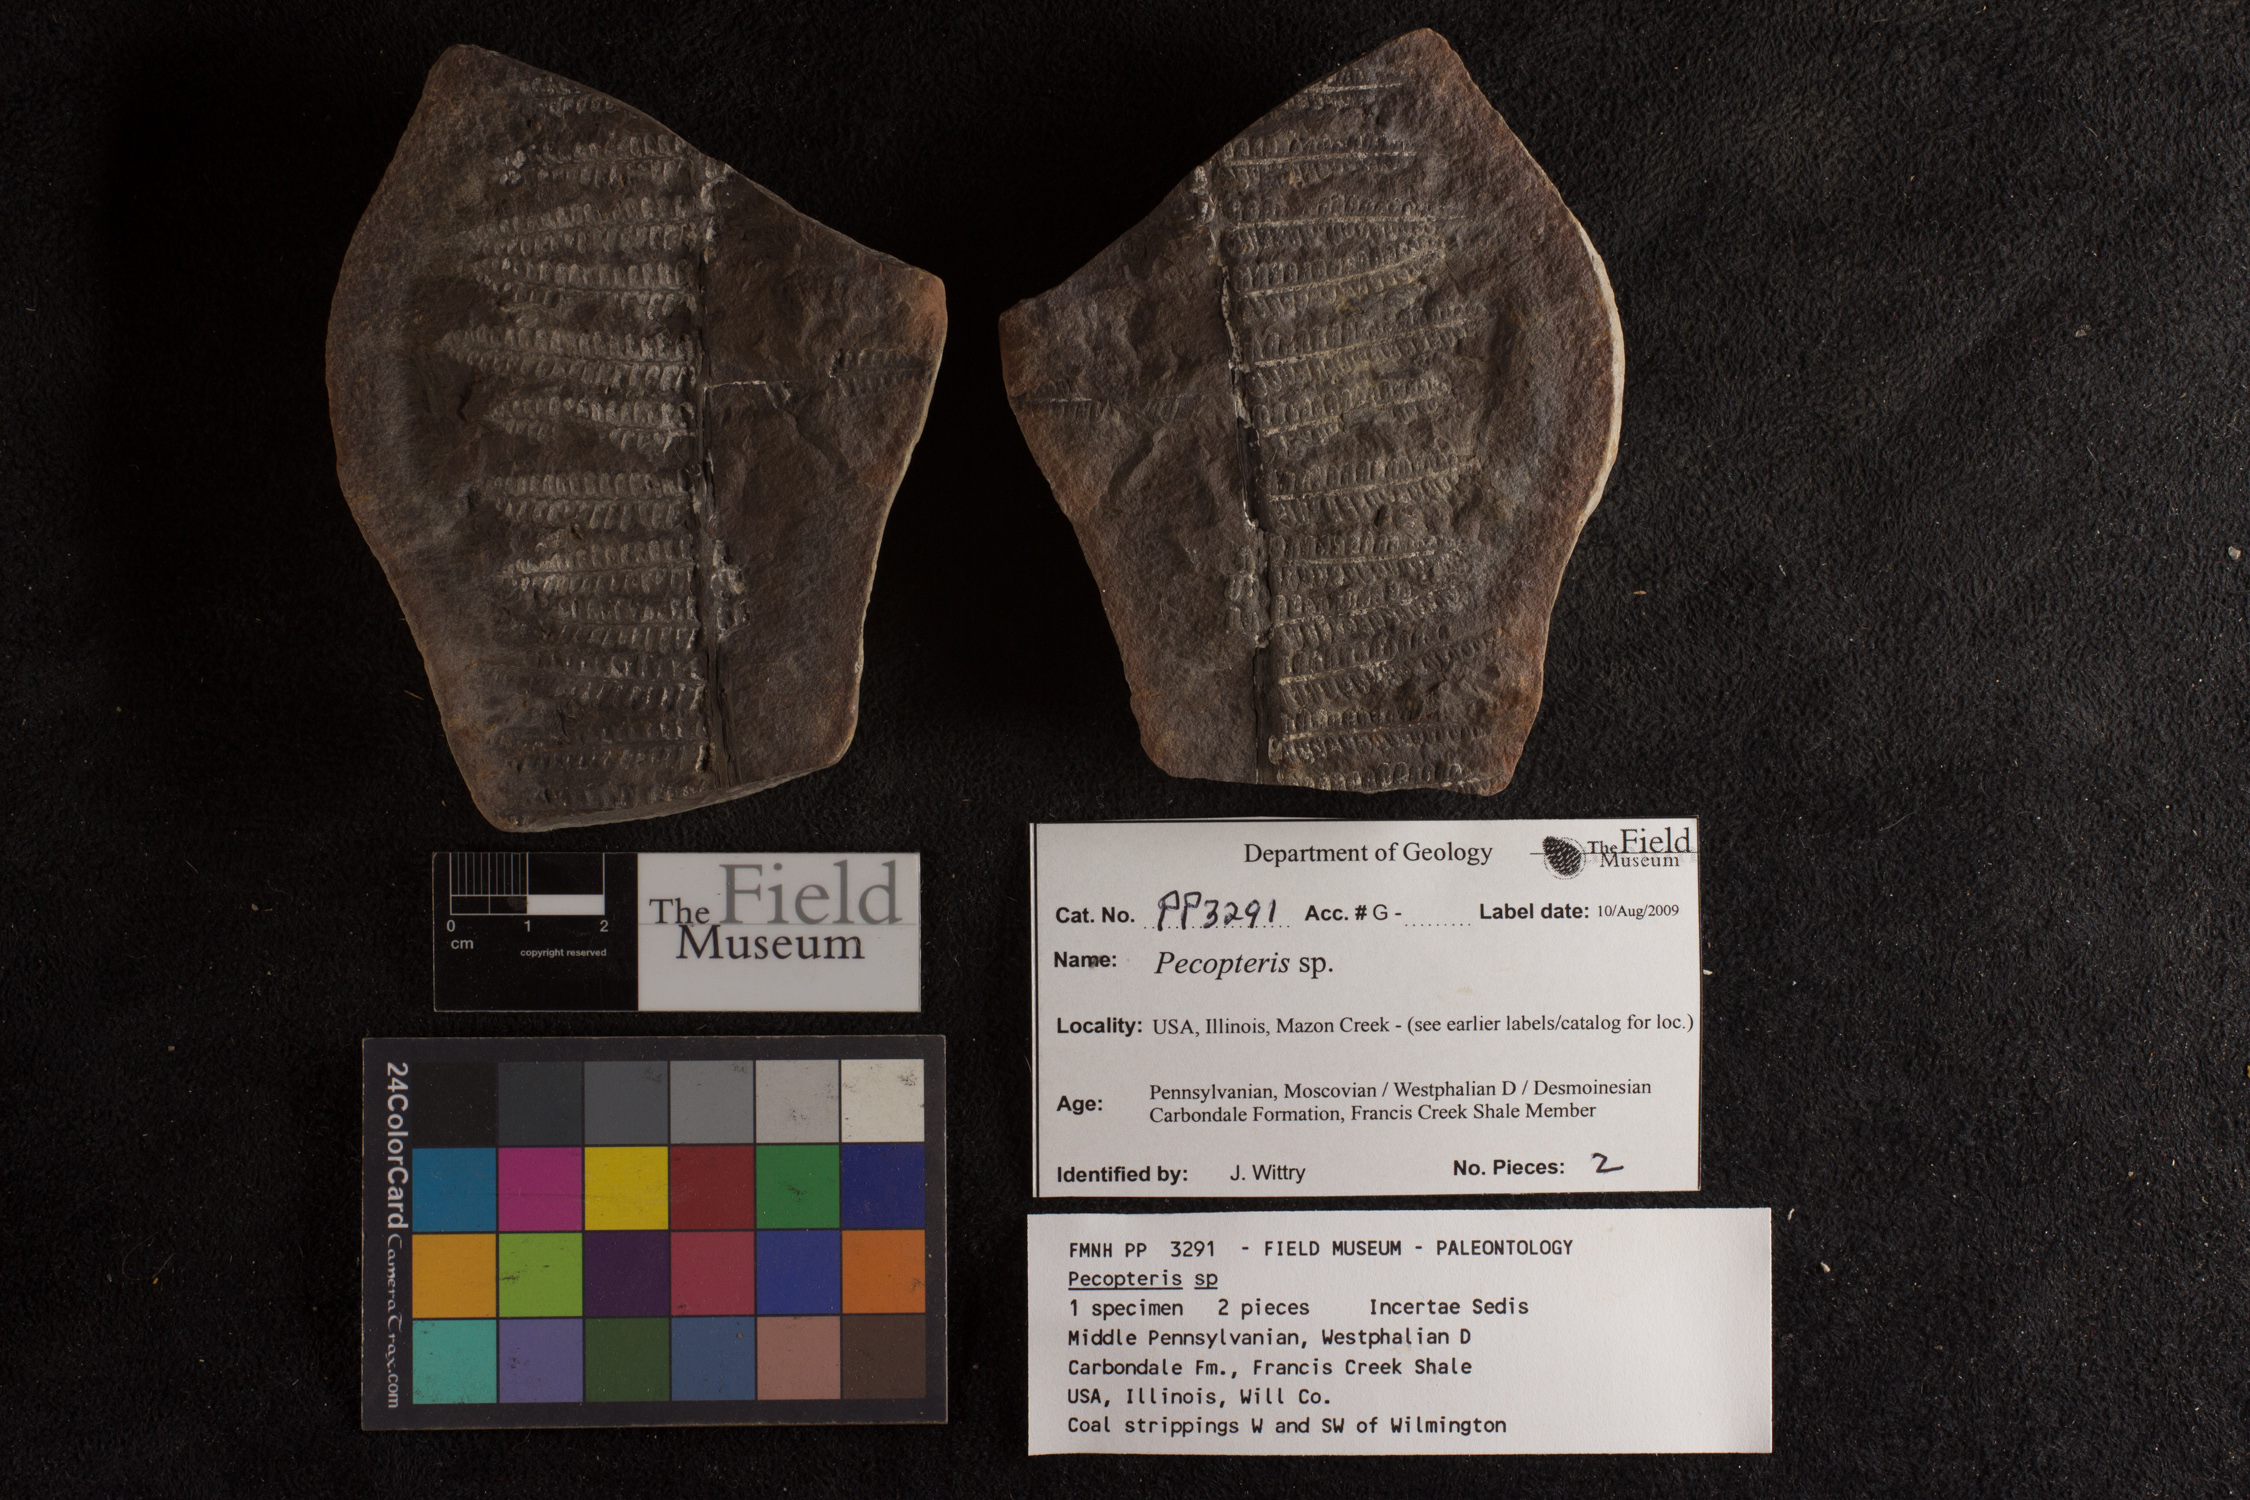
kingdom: Plantae
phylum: Tracheophyta
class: Polypodiopsida
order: Marattiales
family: Asterothecaceae
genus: Pecopteris
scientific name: Pecopteris
